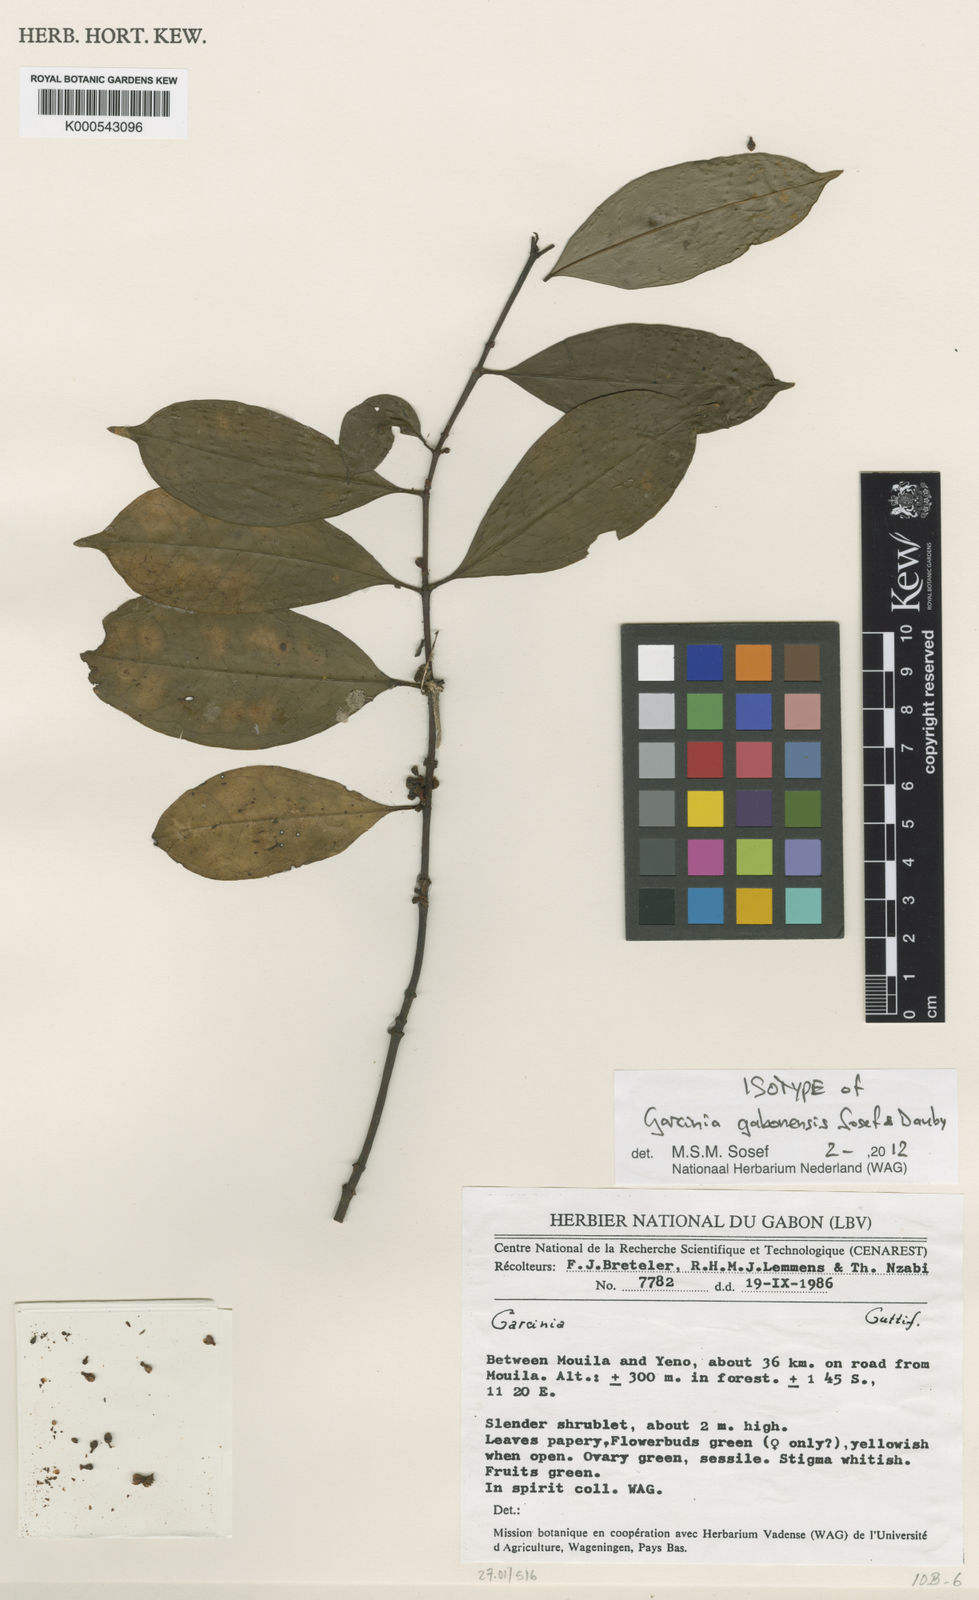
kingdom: Plantae
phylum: Tracheophyta
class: Magnoliopsida
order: Malpighiales
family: Clusiaceae
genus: Garcinia
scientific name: Garcinia gabonensis
